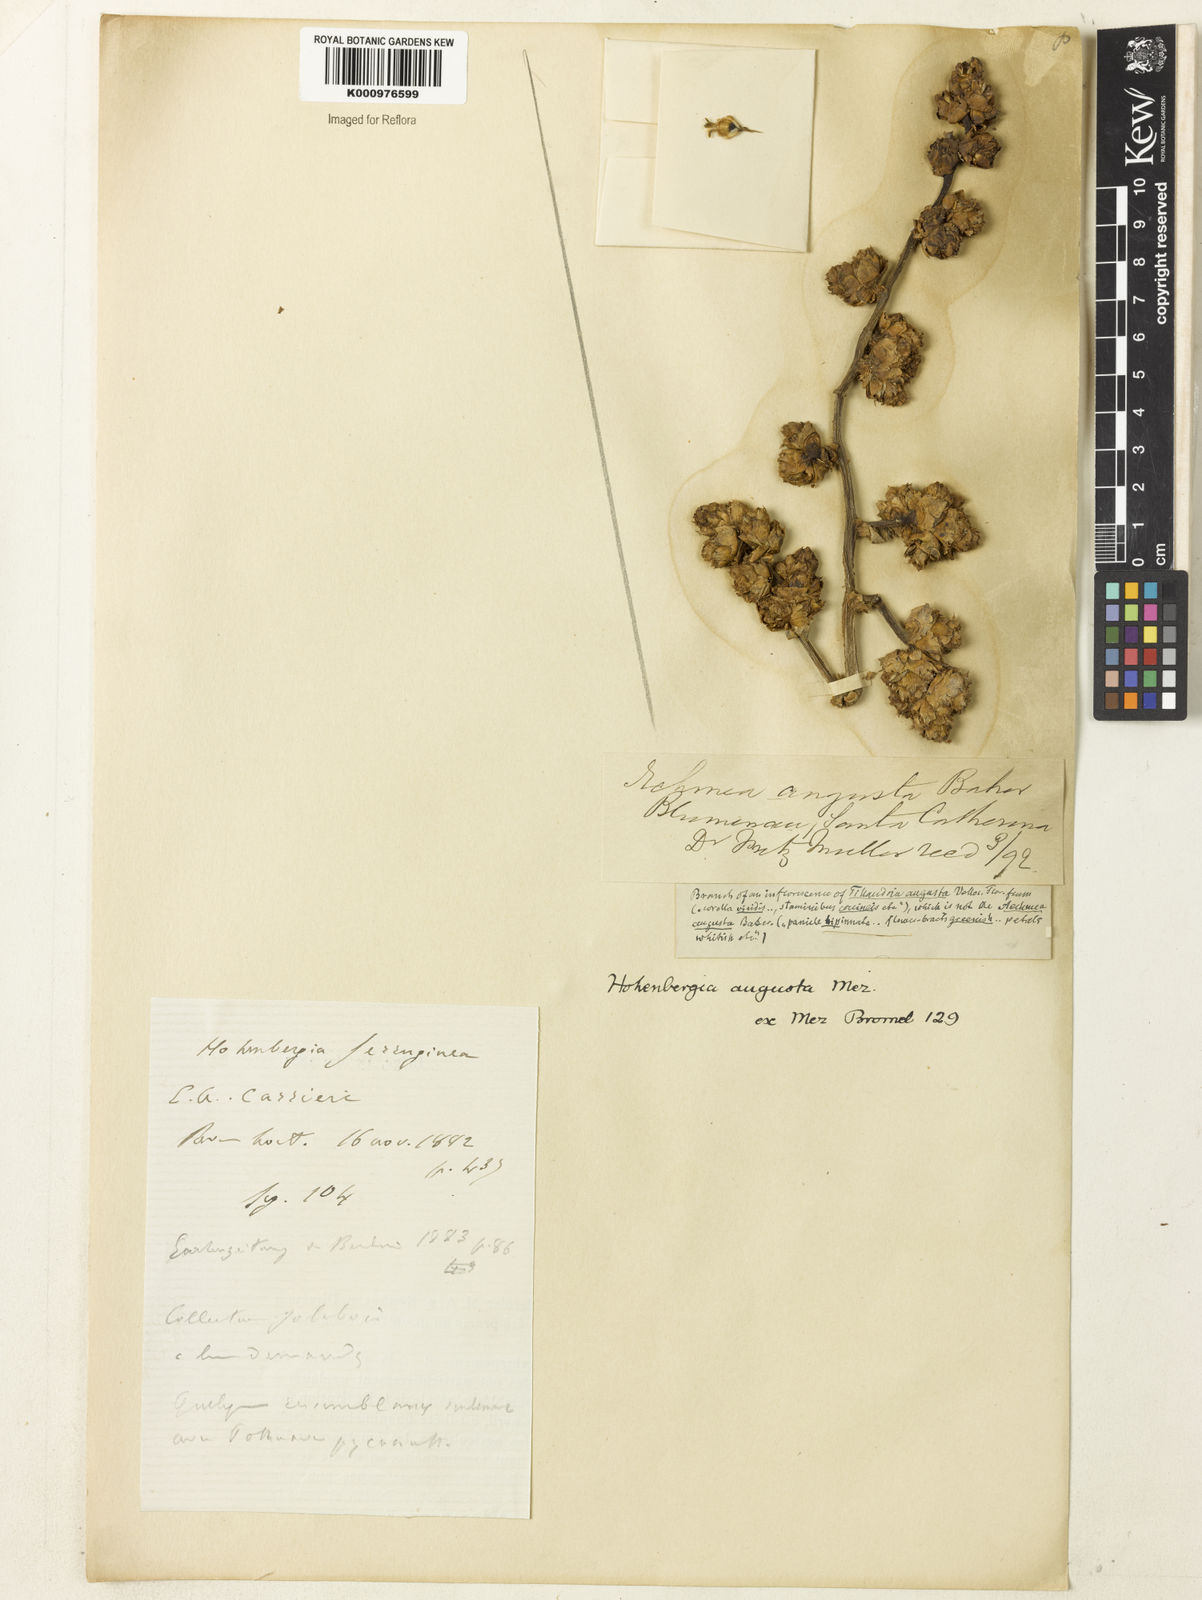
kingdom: Plantae
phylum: Tracheophyta
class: Liliopsida
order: Poales
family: Bromeliaceae
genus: Hohenbergia
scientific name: Hohenbergia augusta
